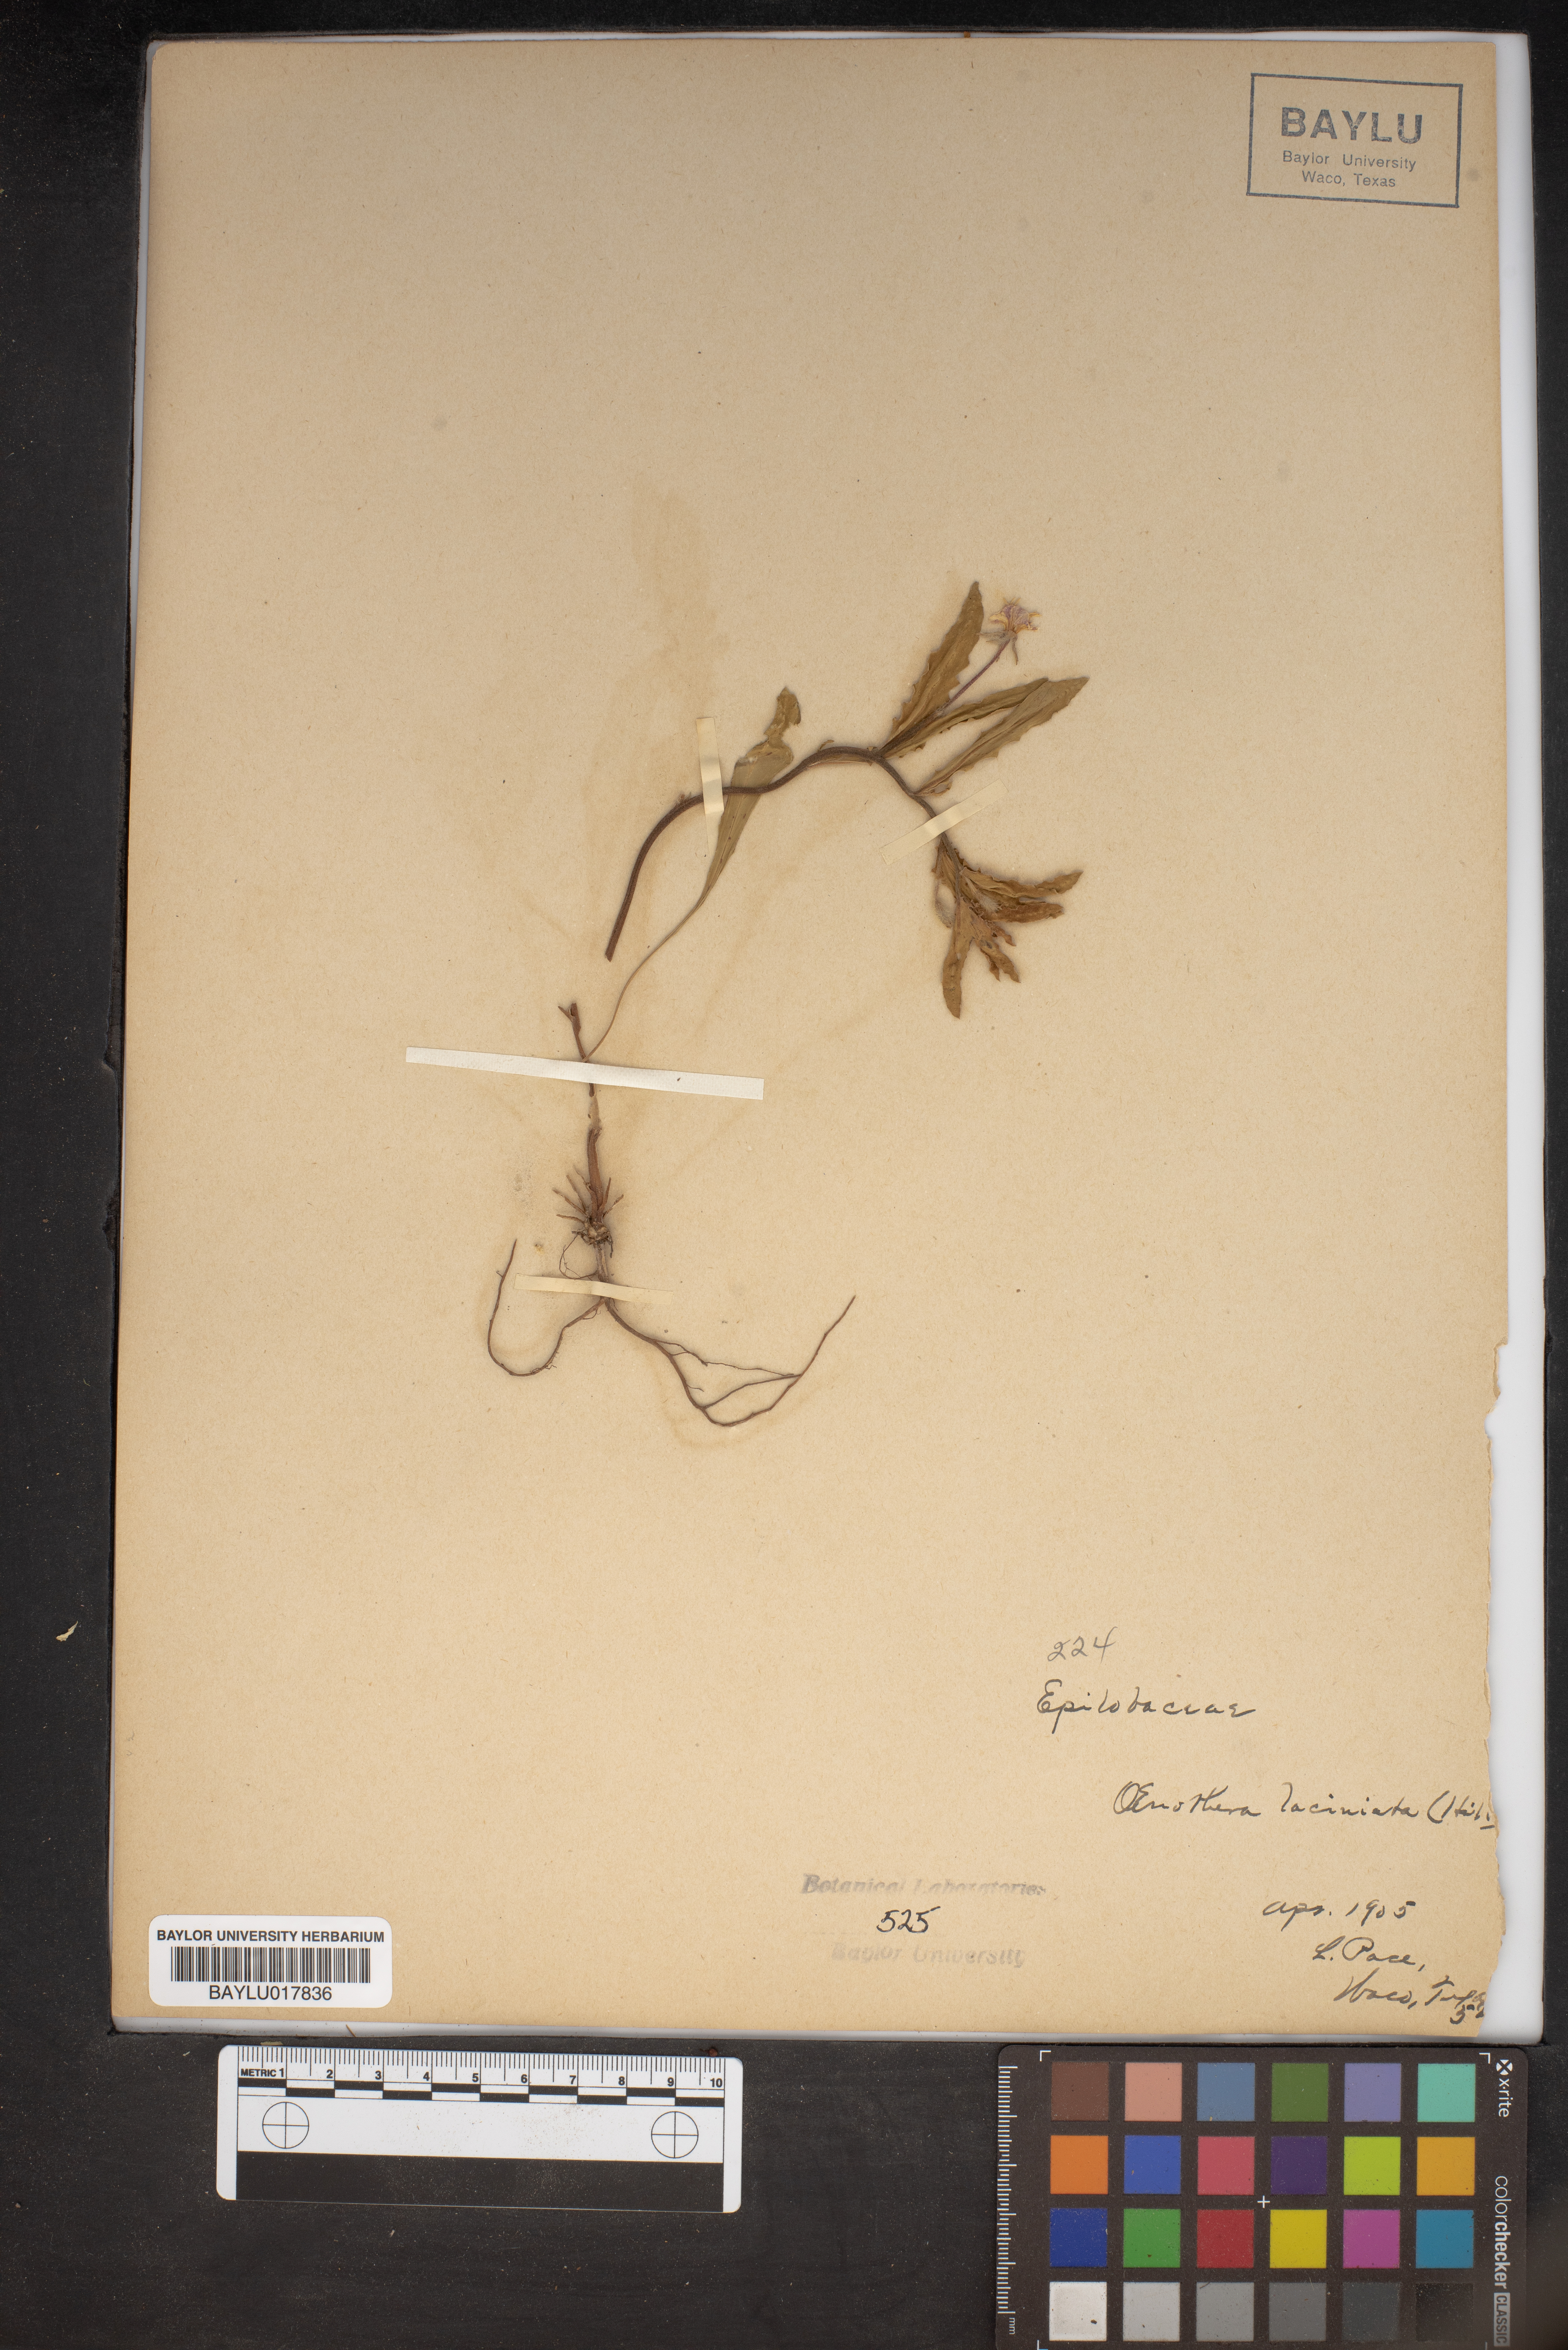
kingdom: Plantae
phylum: Tracheophyta
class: Magnoliopsida
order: Myrtales
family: Onagraceae
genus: Oenothera
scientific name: Oenothera laciniata
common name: Cut-leaved evening-primrose
